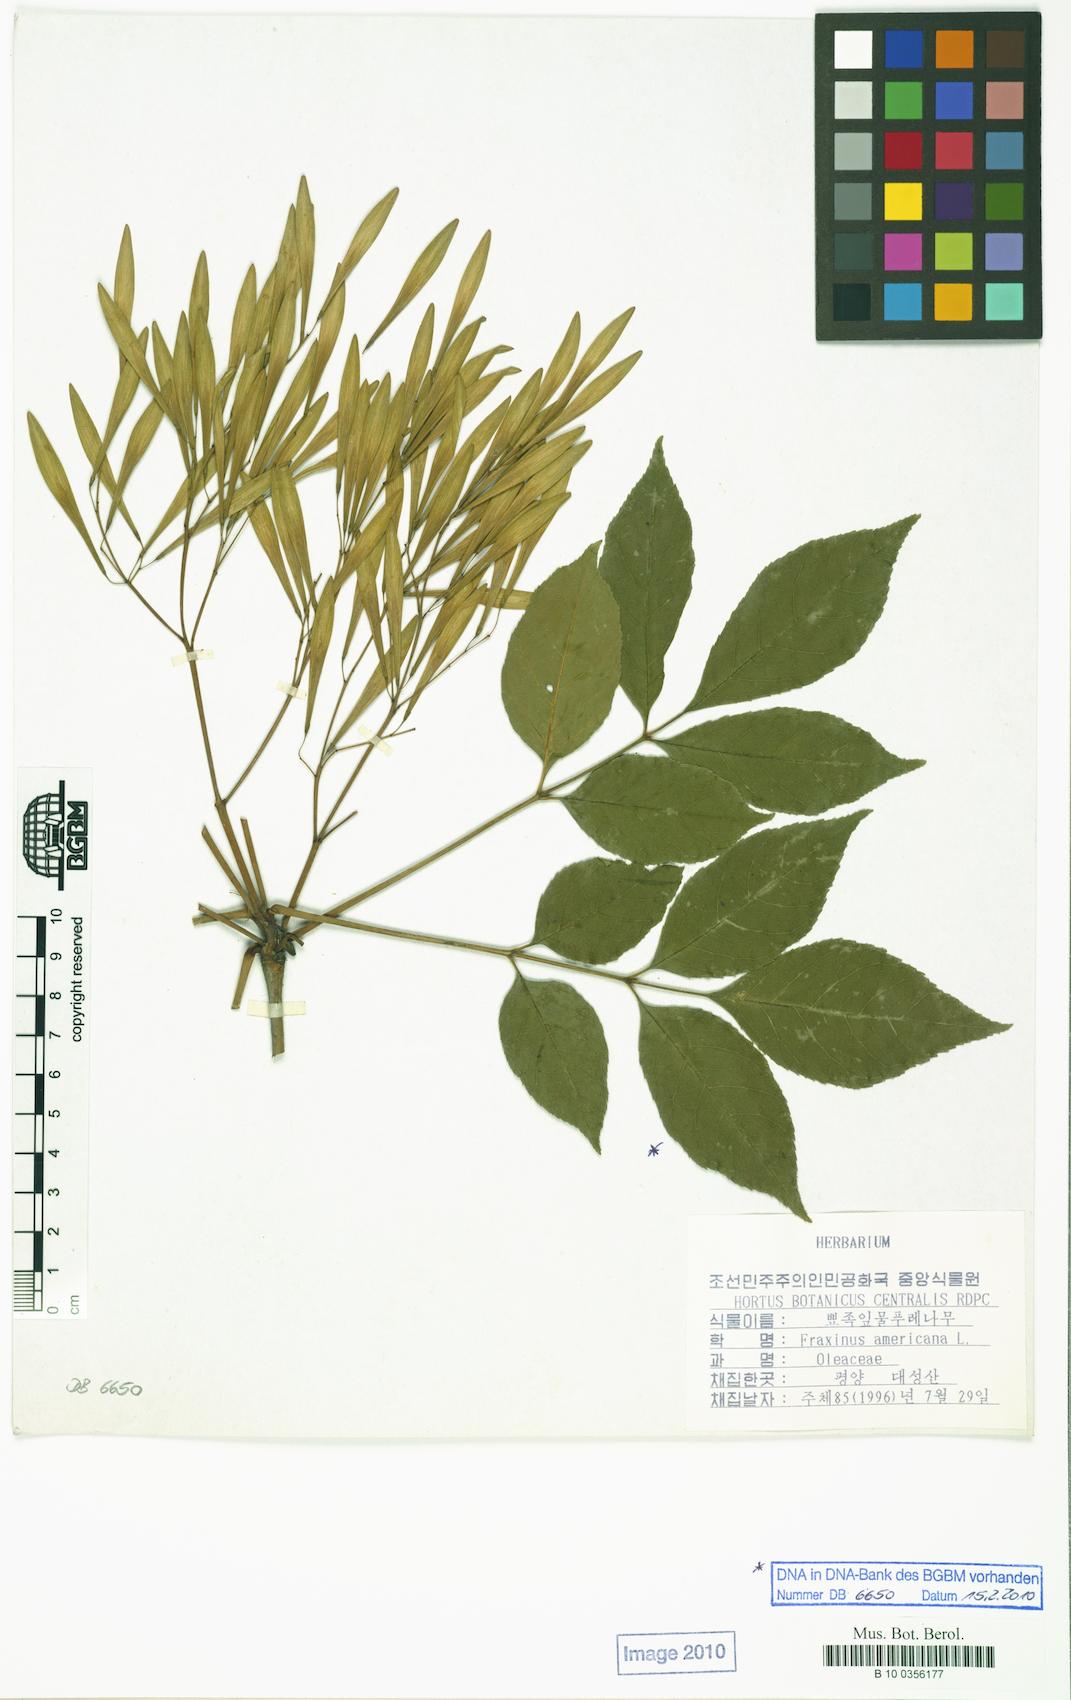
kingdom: Plantae
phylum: Tracheophyta
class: Magnoliopsida
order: Lamiales
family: Oleaceae
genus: Fraxinus
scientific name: Fraxinus americana
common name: White ash
